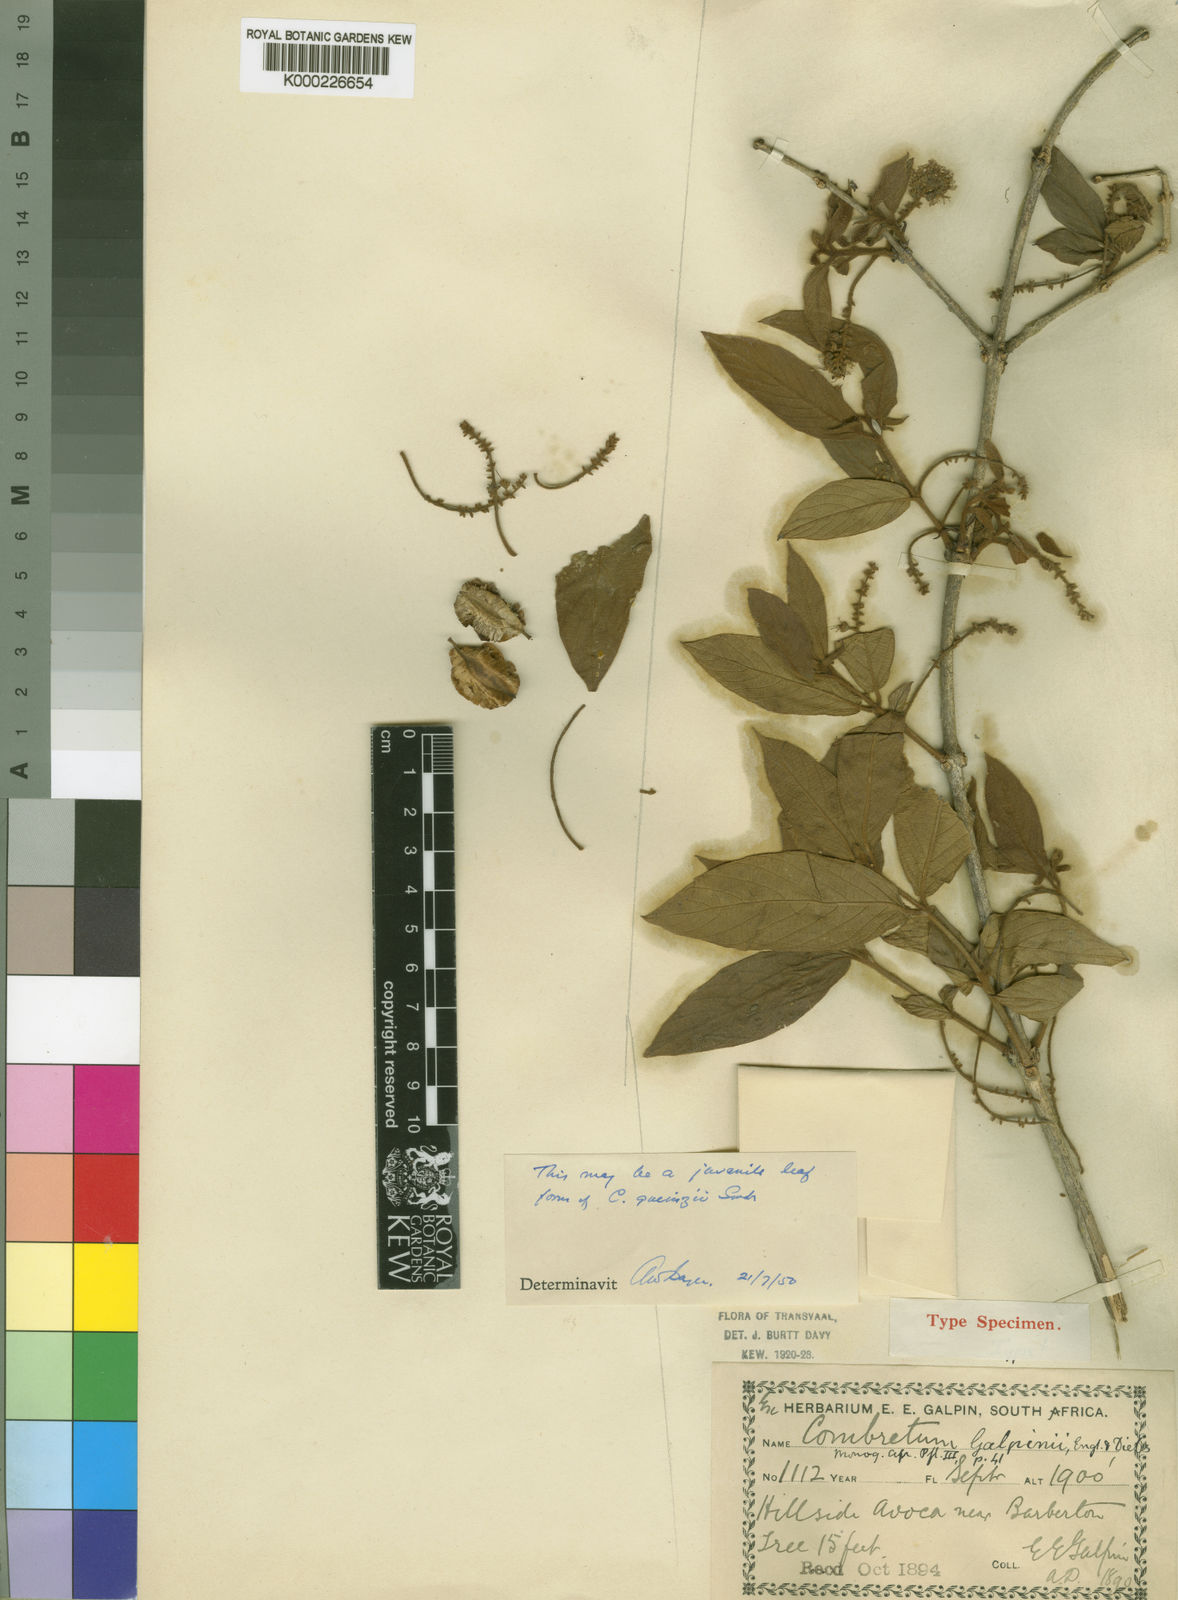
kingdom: Plantae
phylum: Tracheophyta
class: Magnoliopsida
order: Myrtales
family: Combretaceae
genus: Combretum
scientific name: Combretum molle
